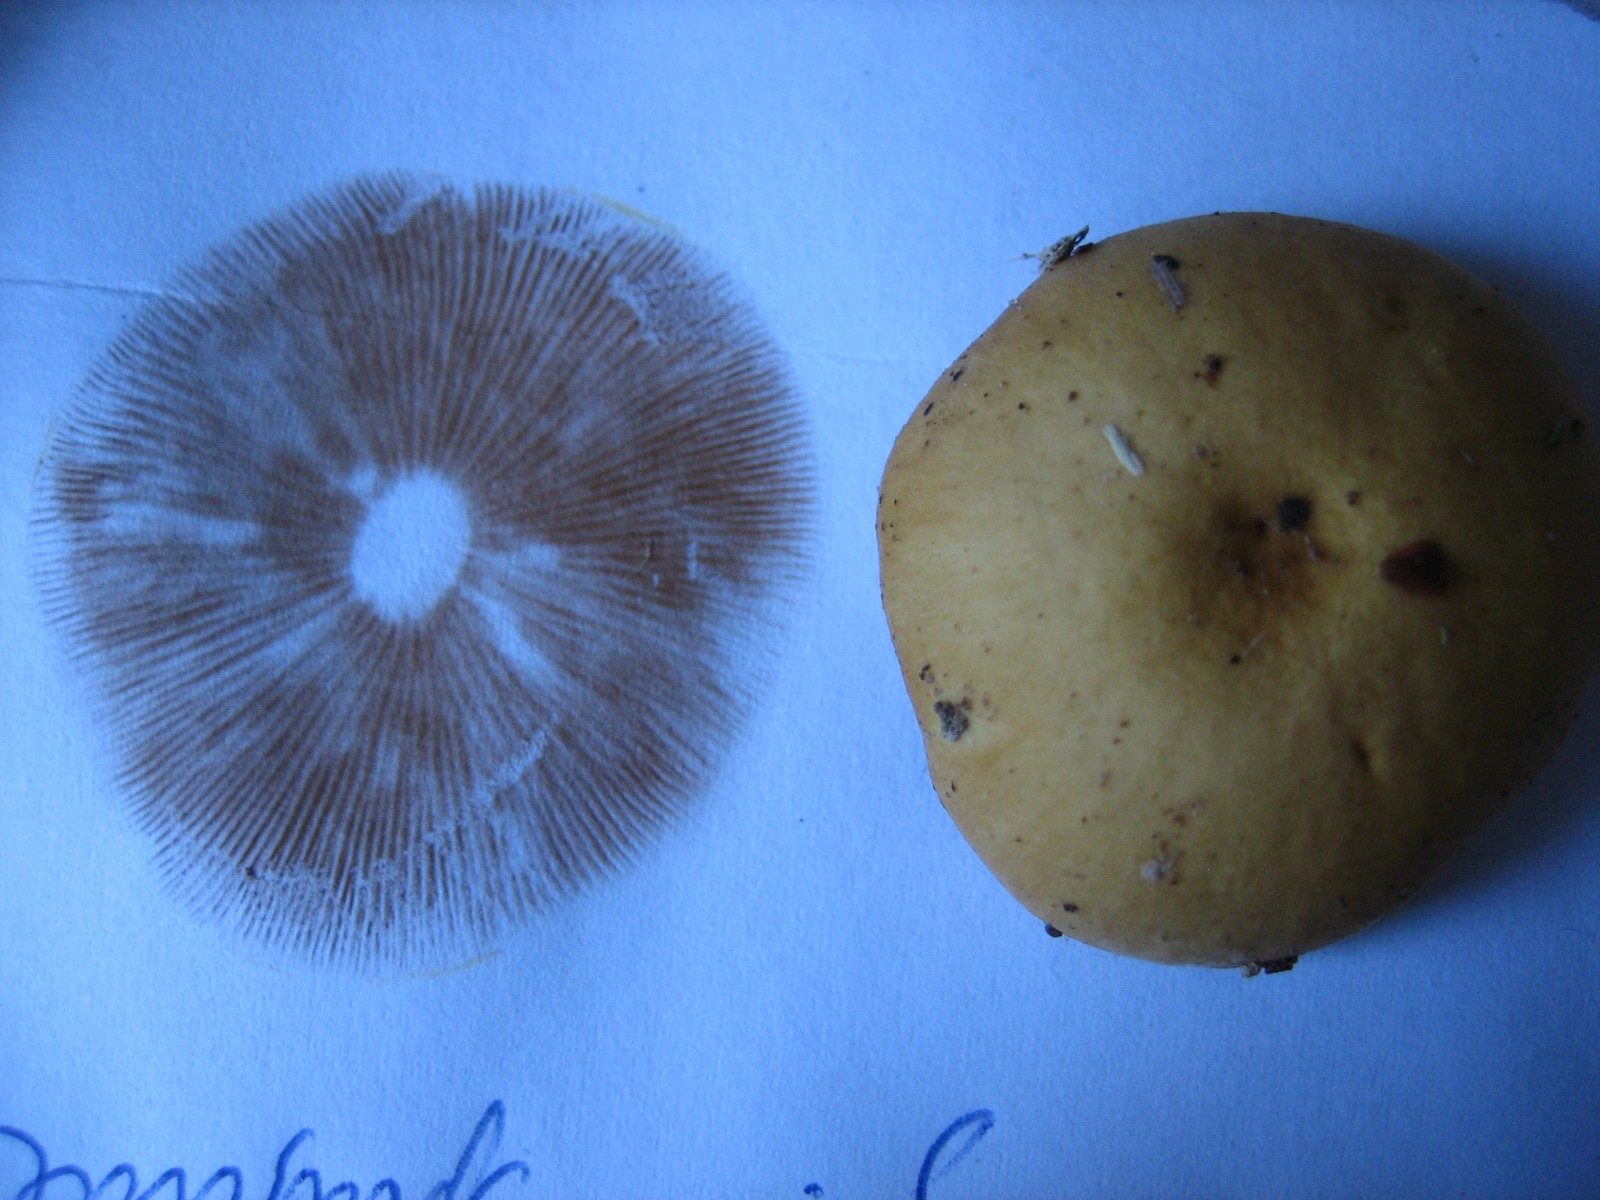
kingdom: Fungi
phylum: Basidiomycota
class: Agaricomycetes
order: Agaricales
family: Hymenogastraceae
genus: Galerina
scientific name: Galerina marginata
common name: randbæltet hjelmhat
